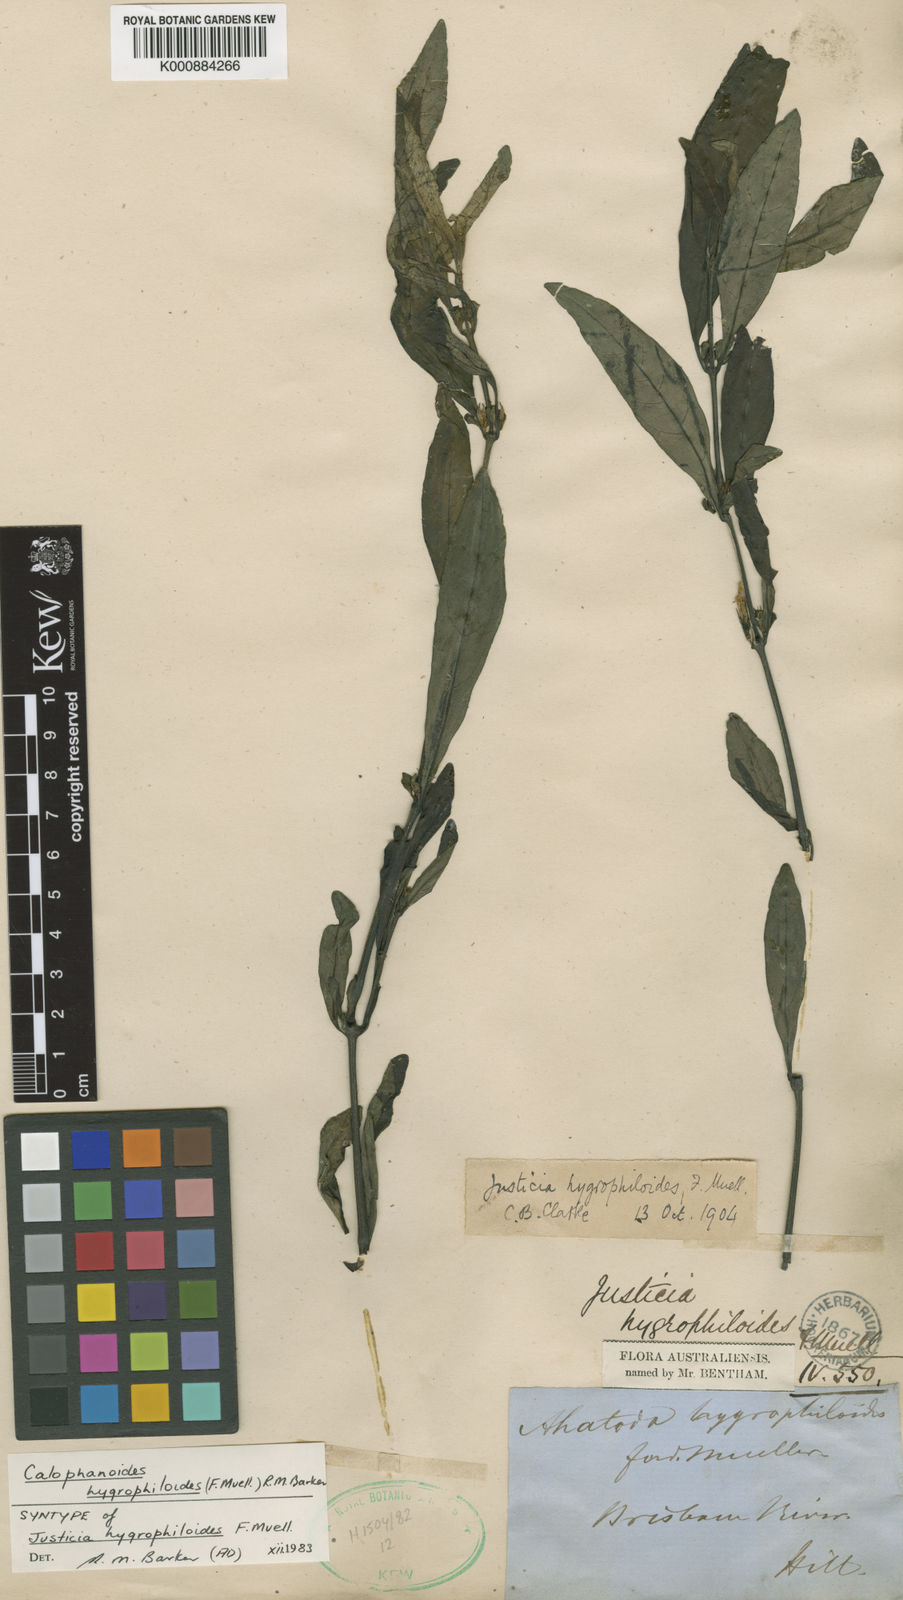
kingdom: Plantae
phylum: Tracheophyta
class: Magnoliopsida
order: Lamiales
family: Acanthaceae
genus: Justicia
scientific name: Justicia hygrophiloides
